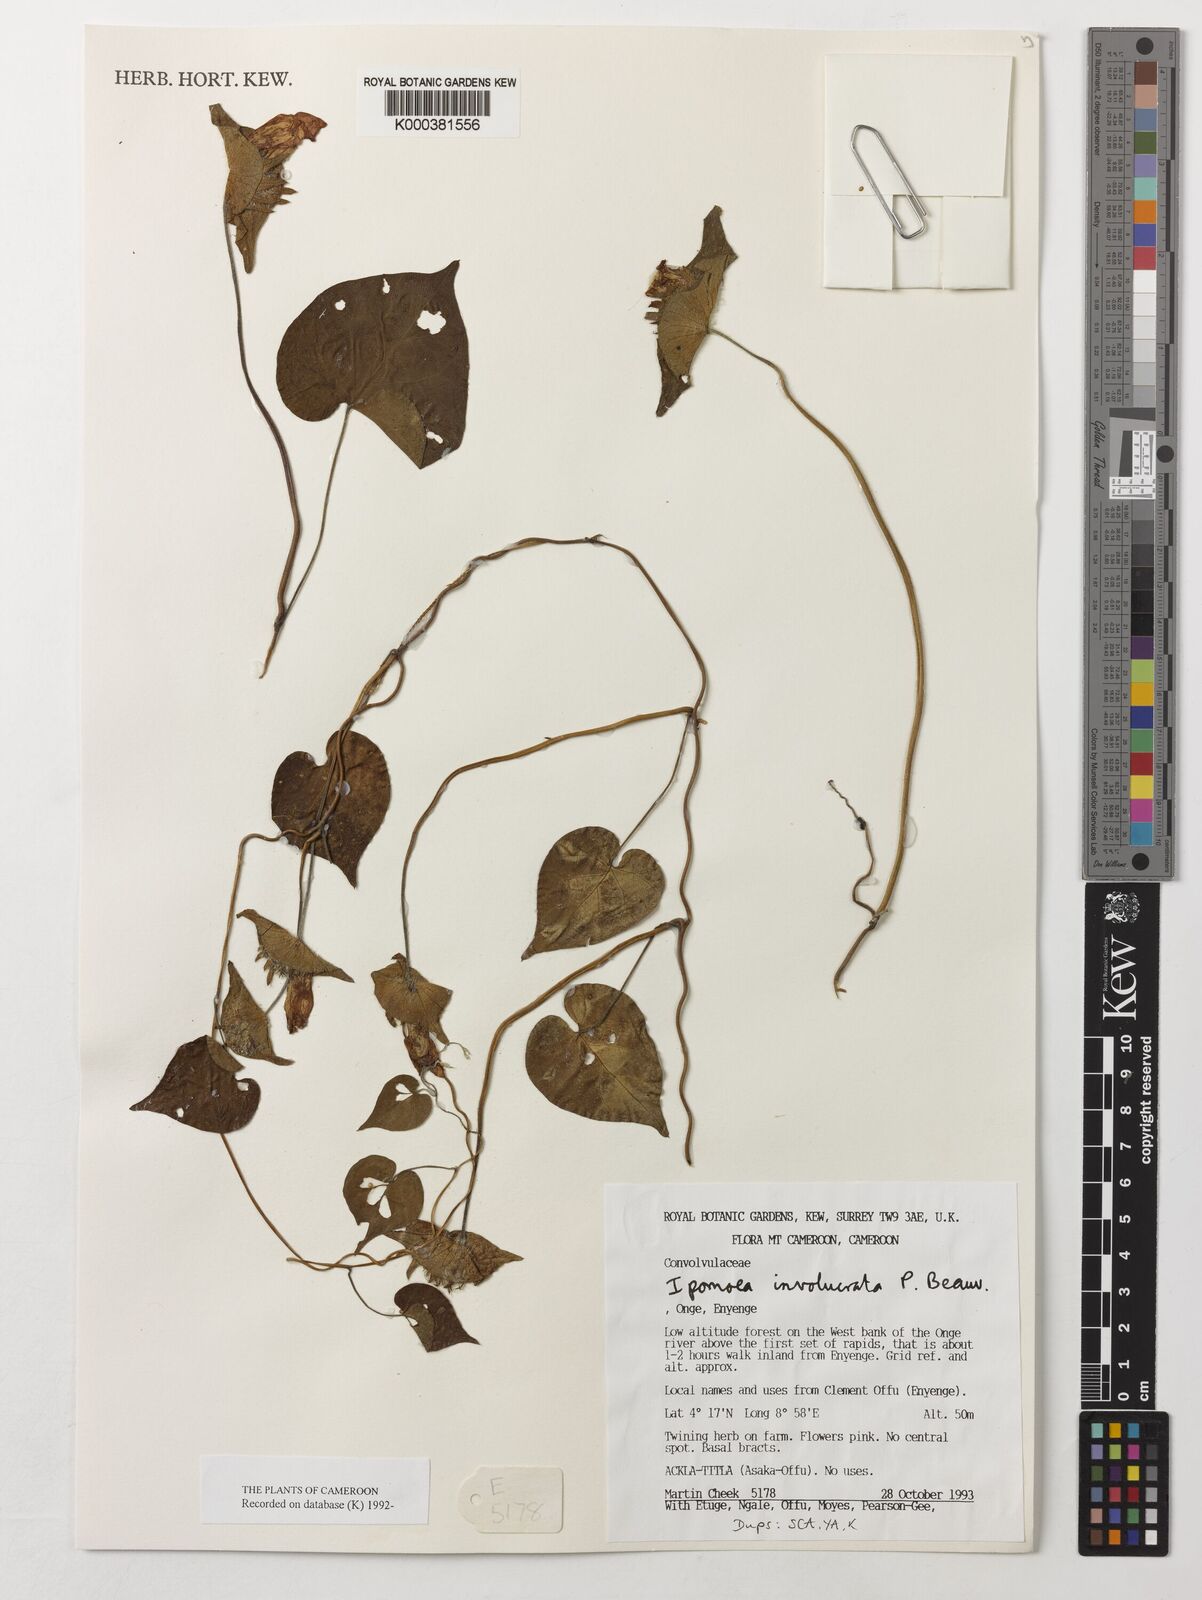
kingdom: Plantae
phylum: Tracheophyta
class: Magnoliopsida
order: Solanales
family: Convolvulaceae
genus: Ipomoea
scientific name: Ipomoea involucrata
